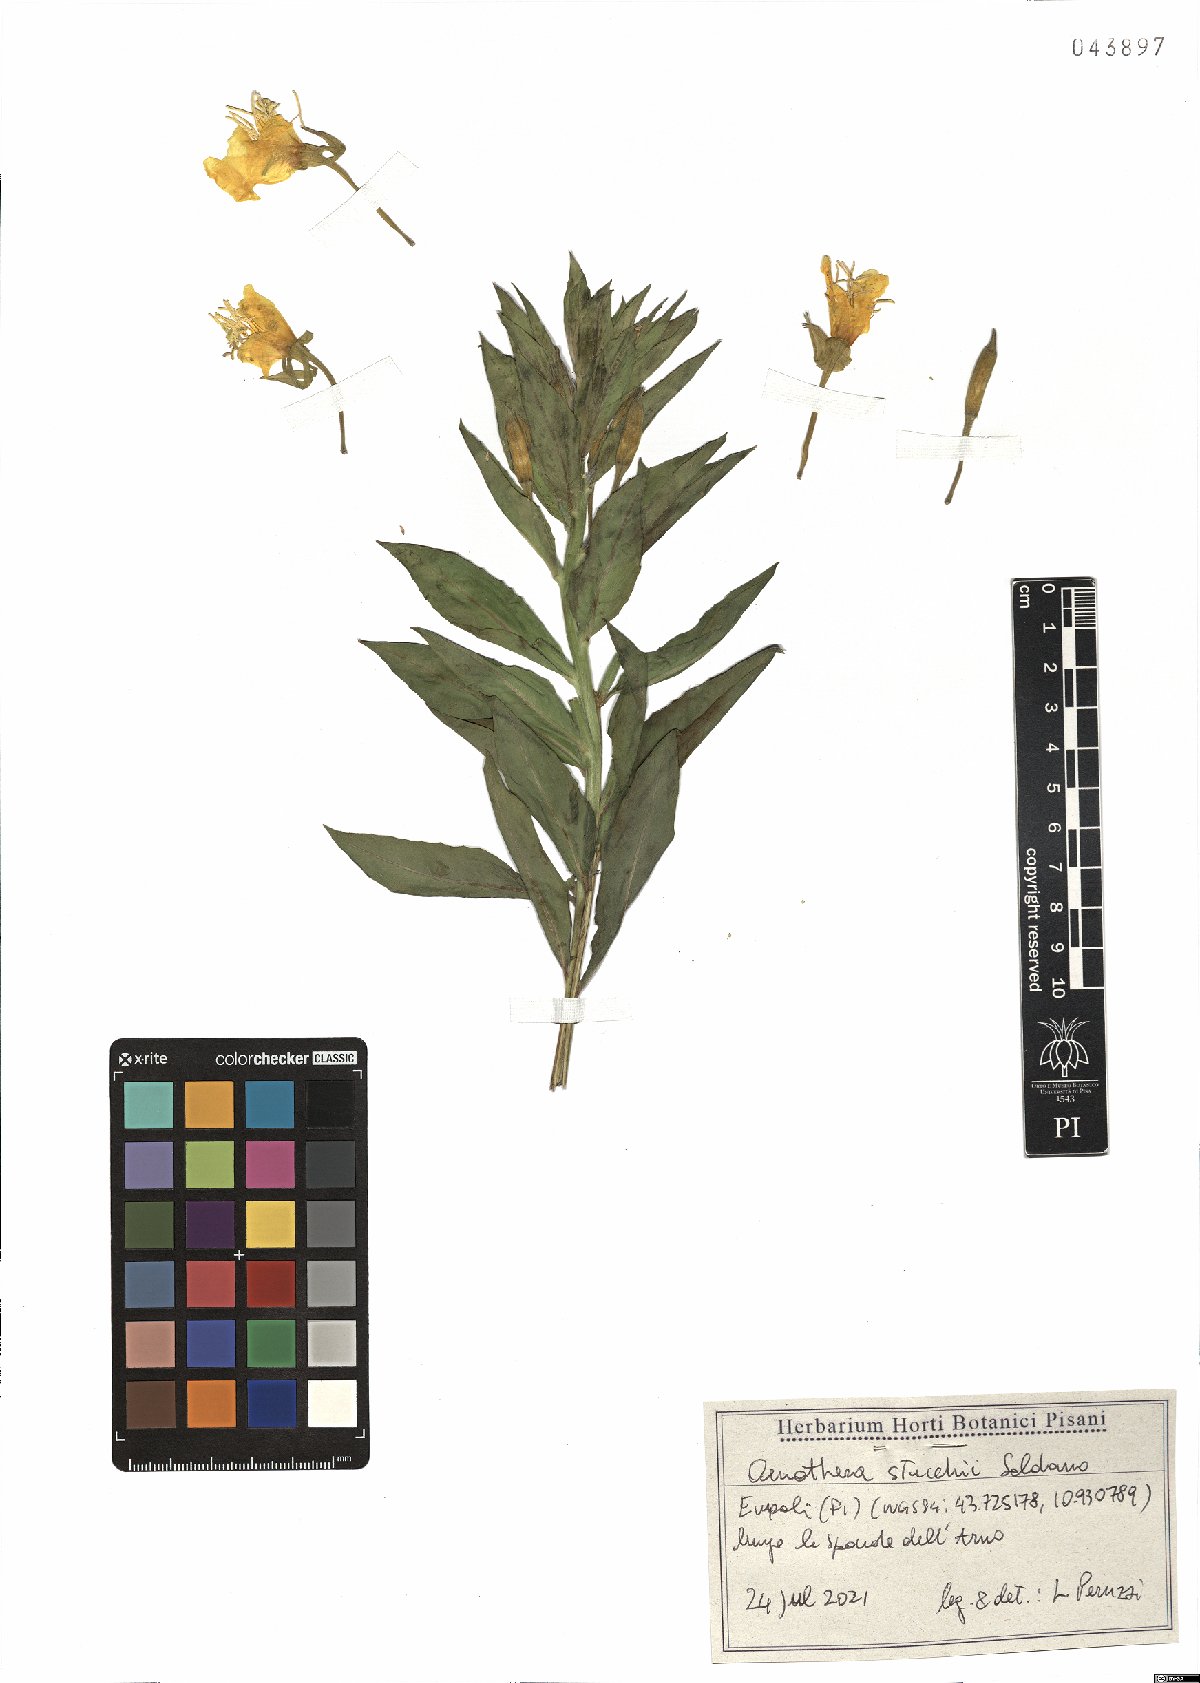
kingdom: Plantae
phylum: Tracheophyta
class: Magnoliopsida
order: Myrtales
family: Onagraceae
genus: Oenothera
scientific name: Oenothera stucchii
